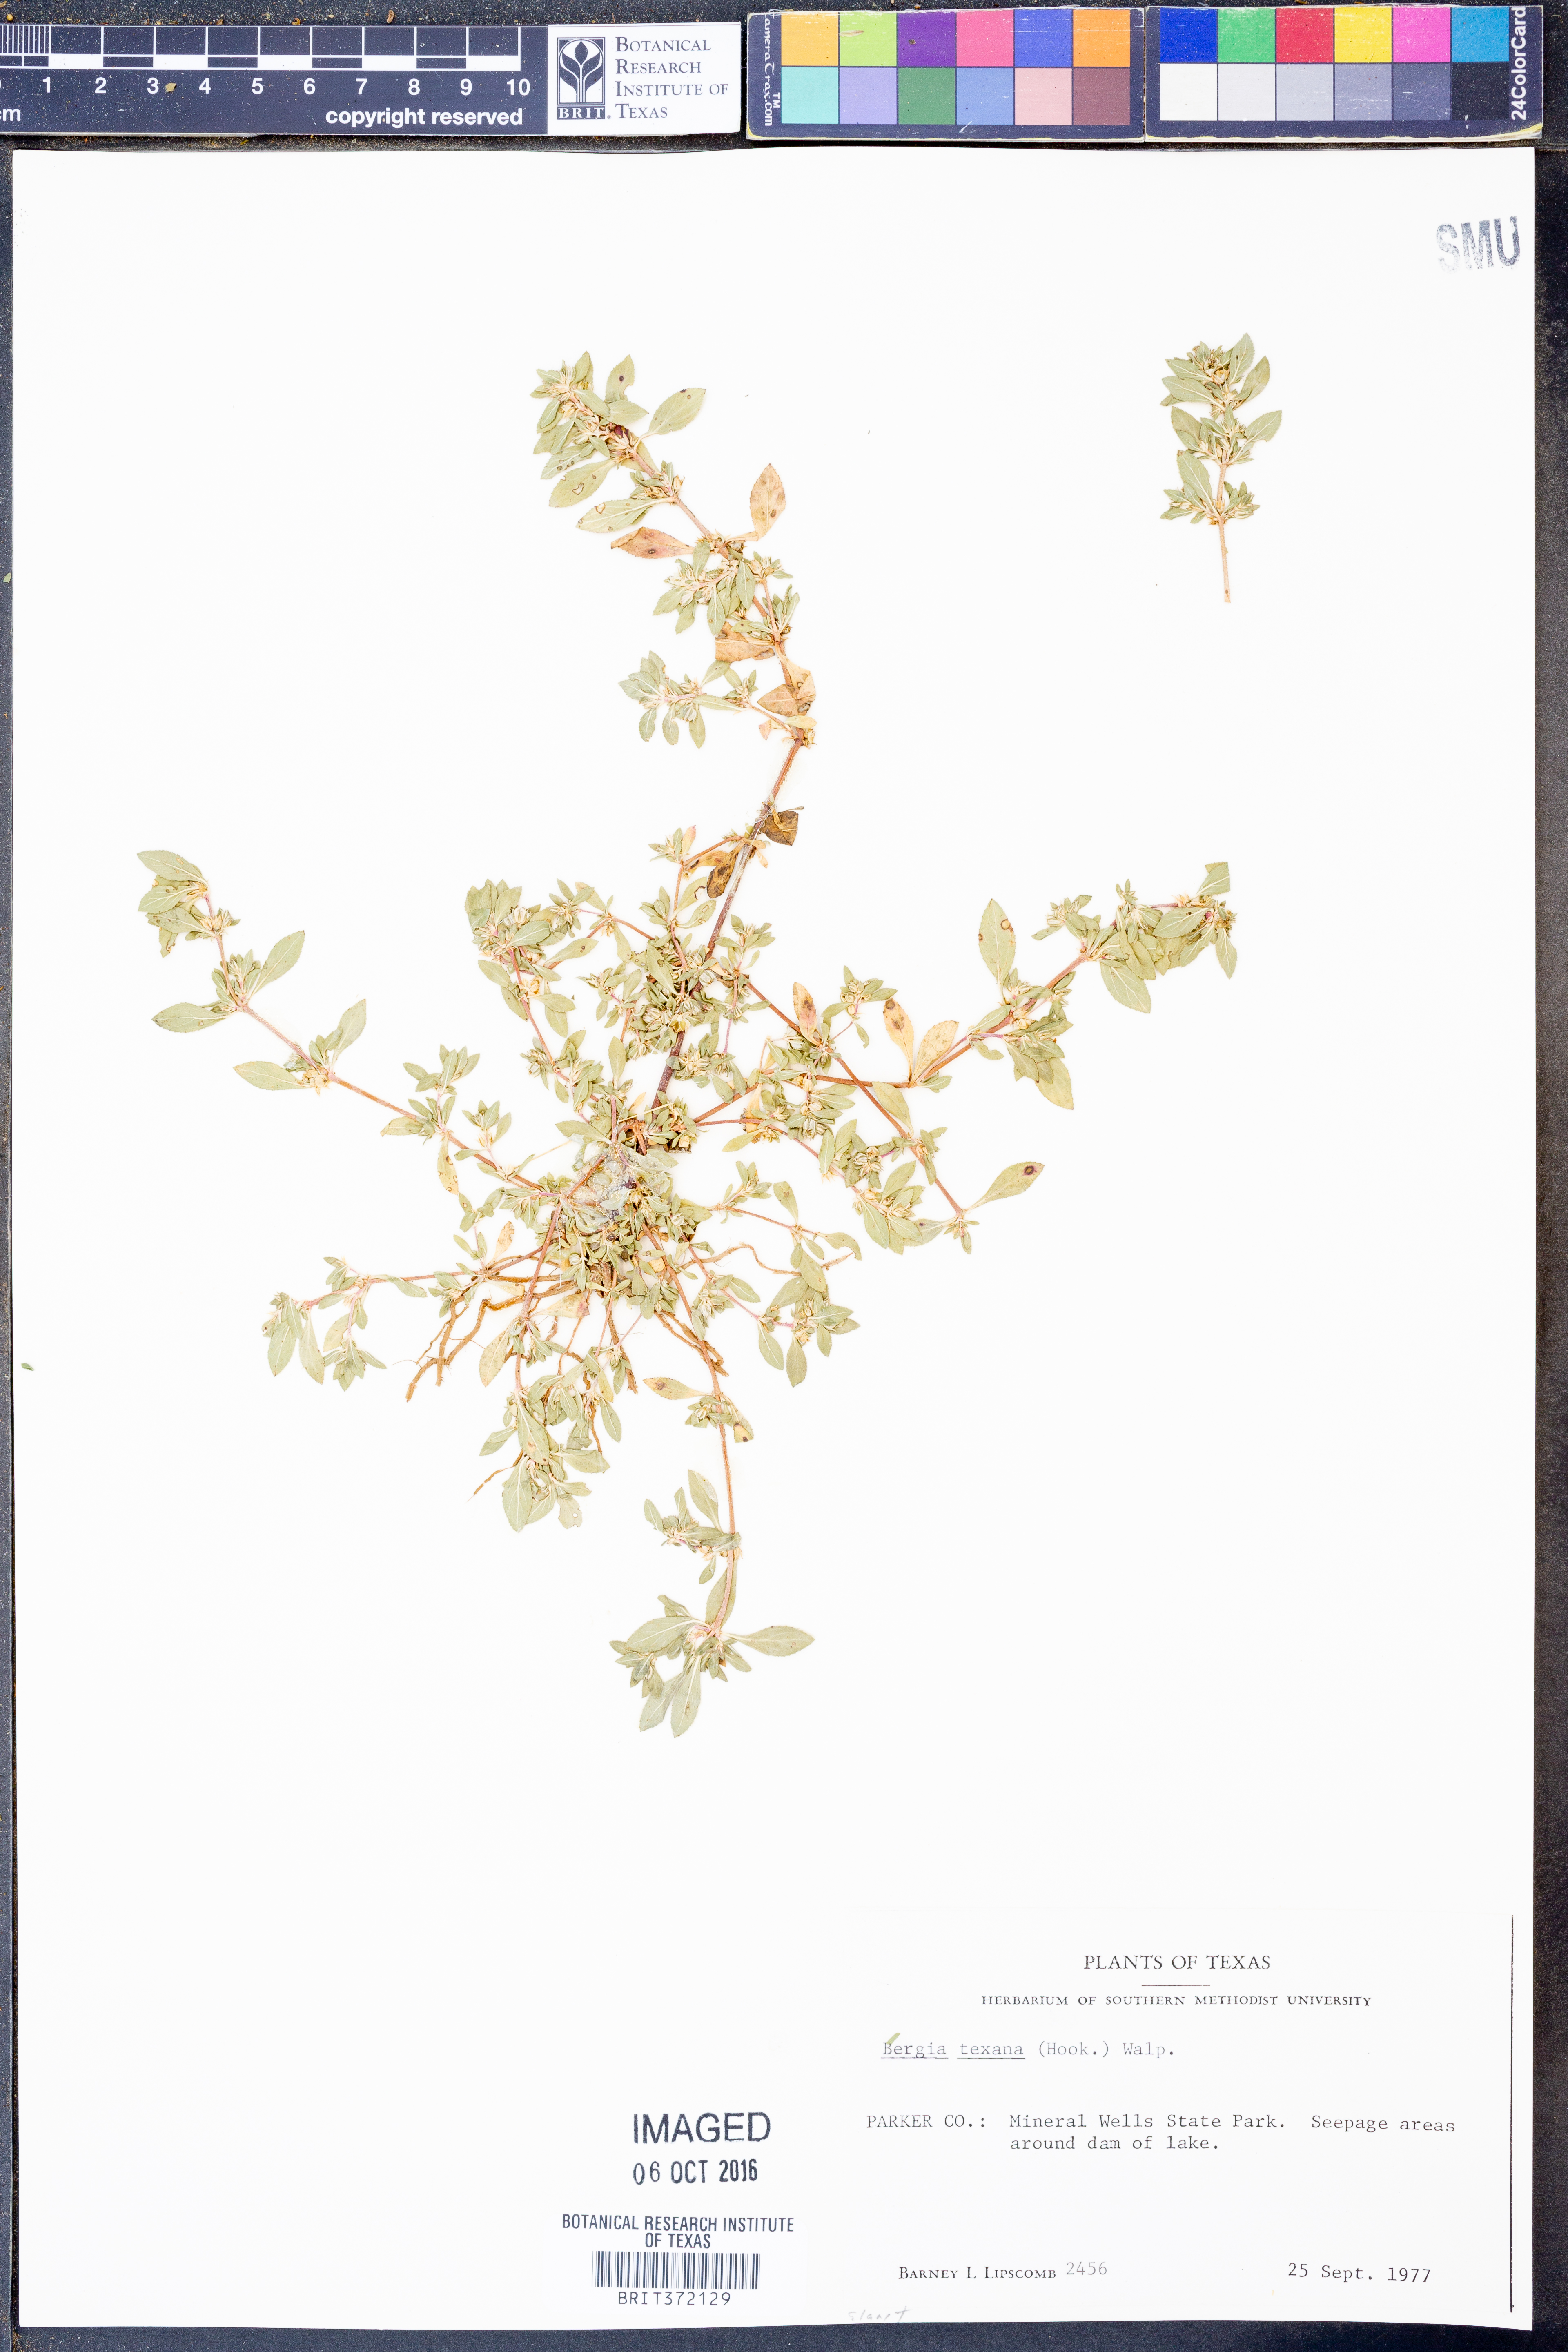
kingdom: Plantae
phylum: Tracheophyta
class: Magnoliopsida
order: Malpighiales
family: Elatinaceae
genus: Bergia
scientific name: Bergia texana
